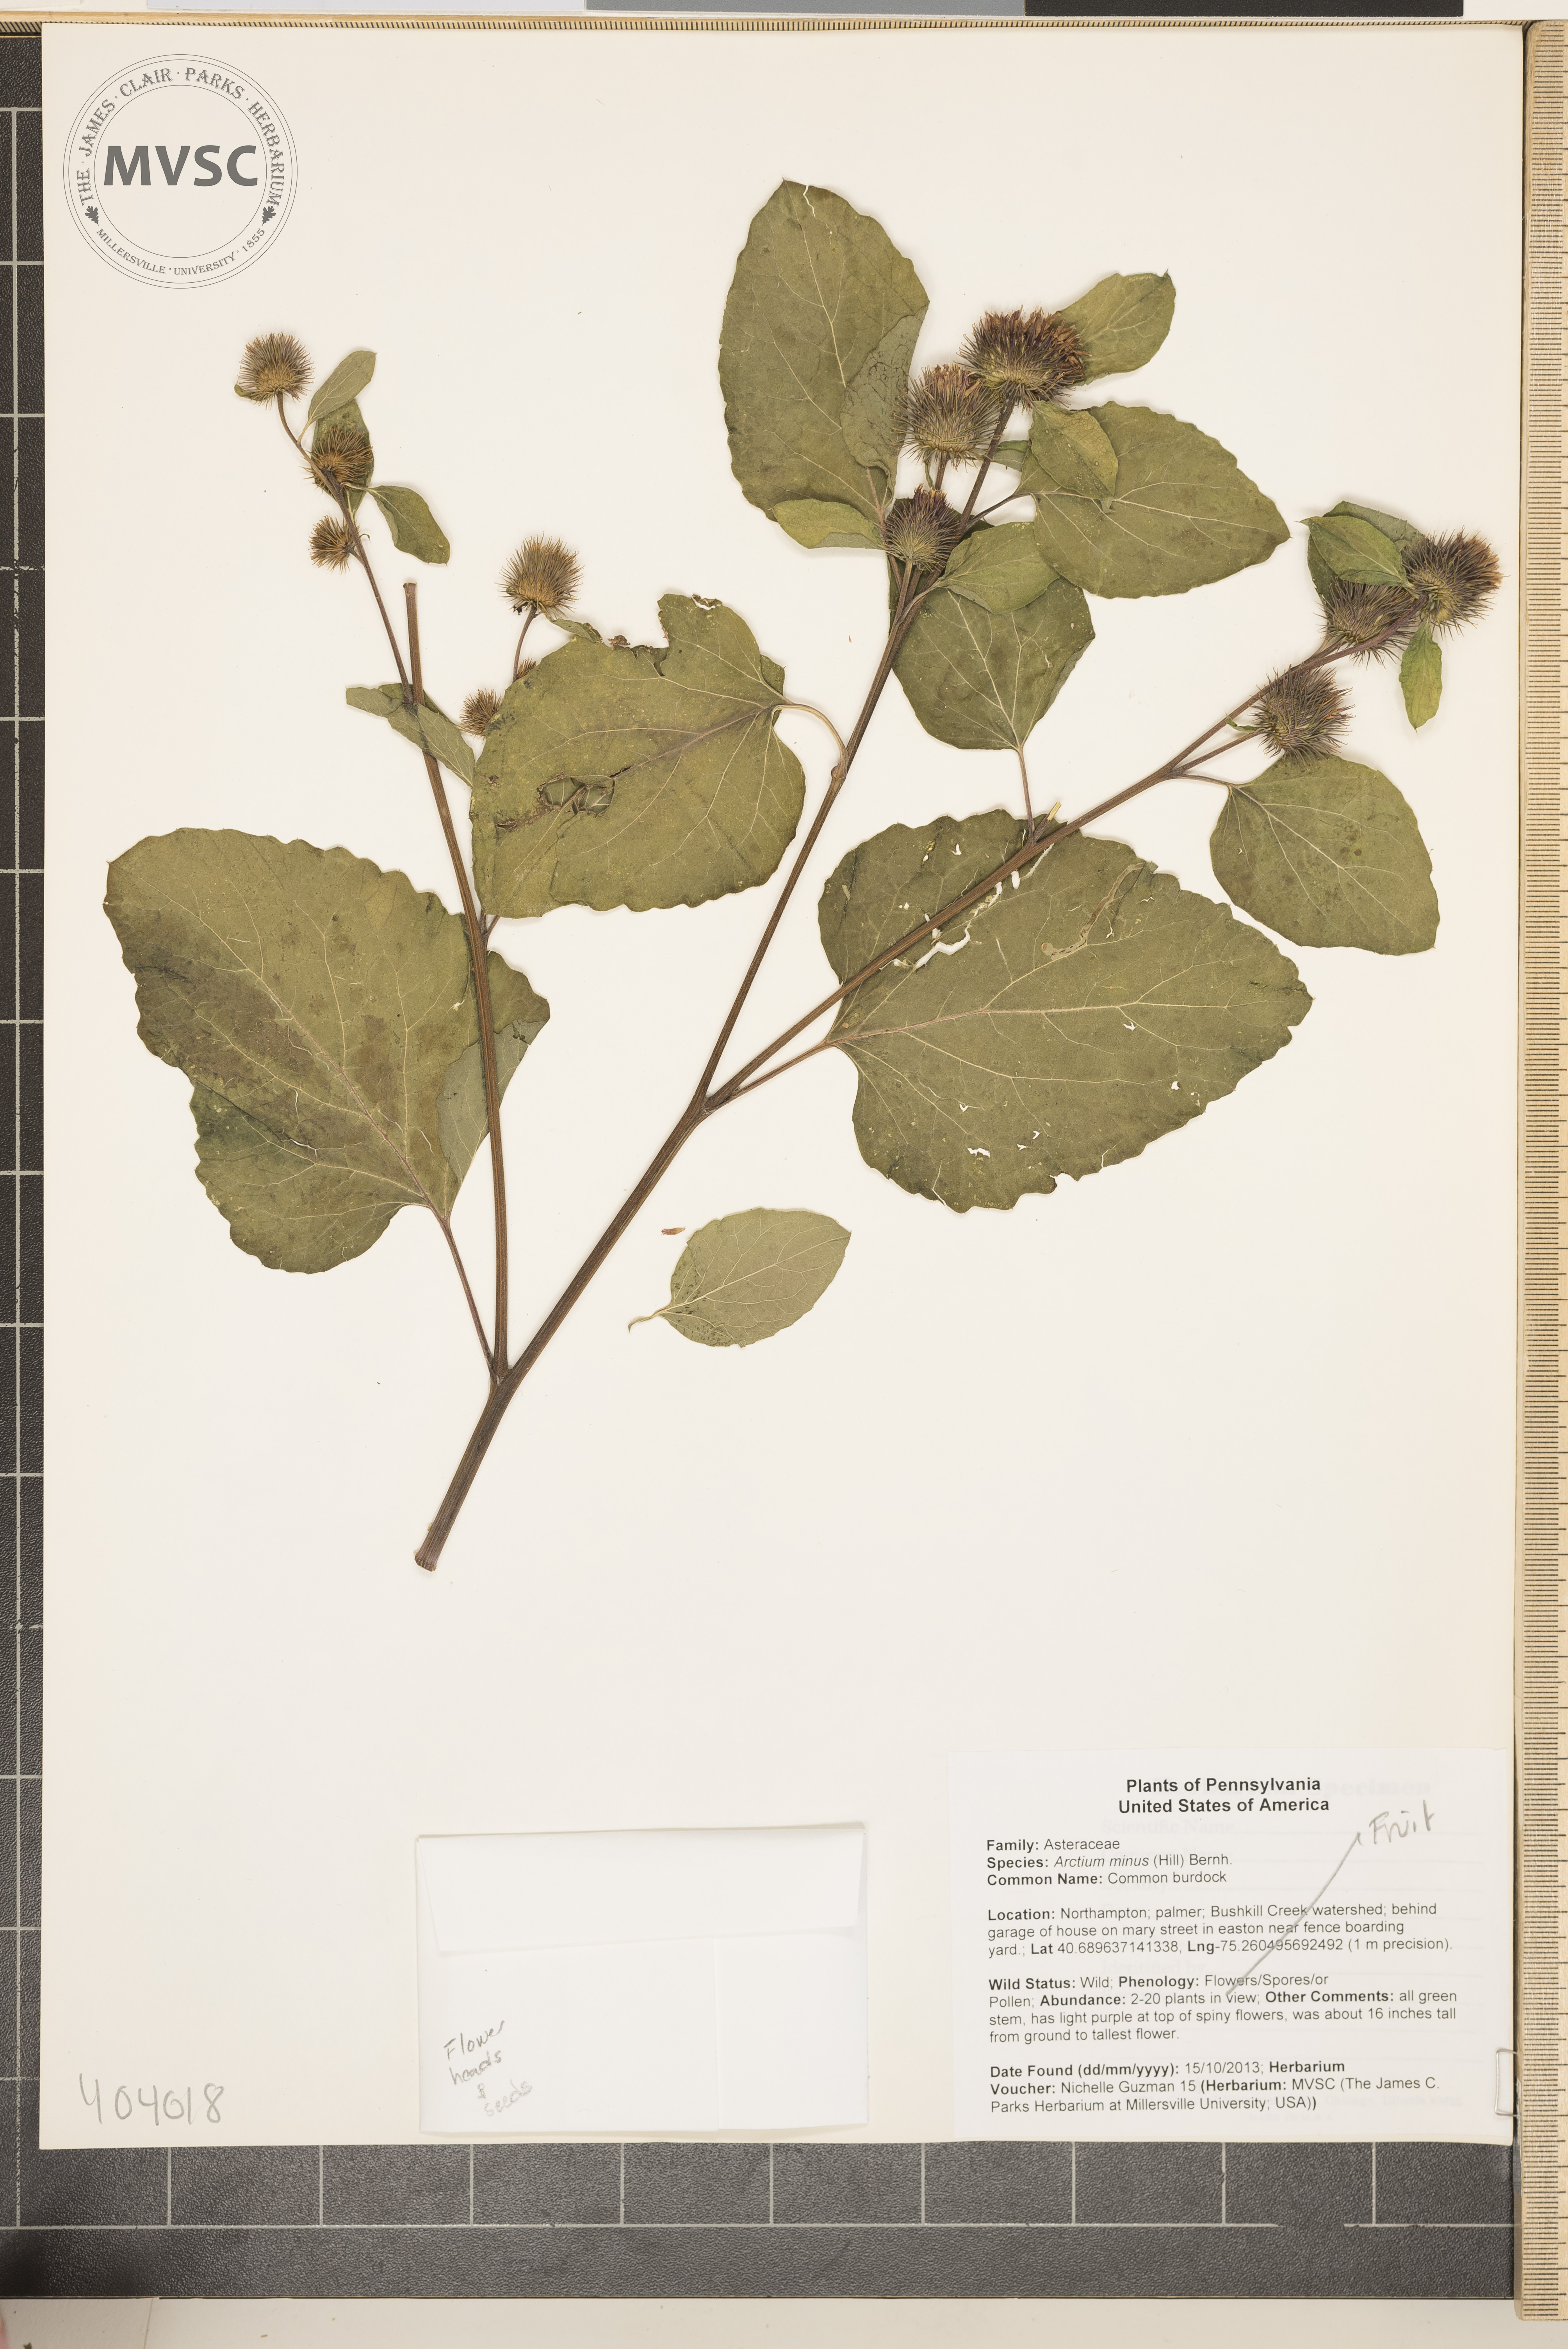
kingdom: Plantae
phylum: Tracheophyta
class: Magnoliopsida
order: Asterales
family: Asteraceae
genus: Arctium
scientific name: Arctium minus
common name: Common burdock
